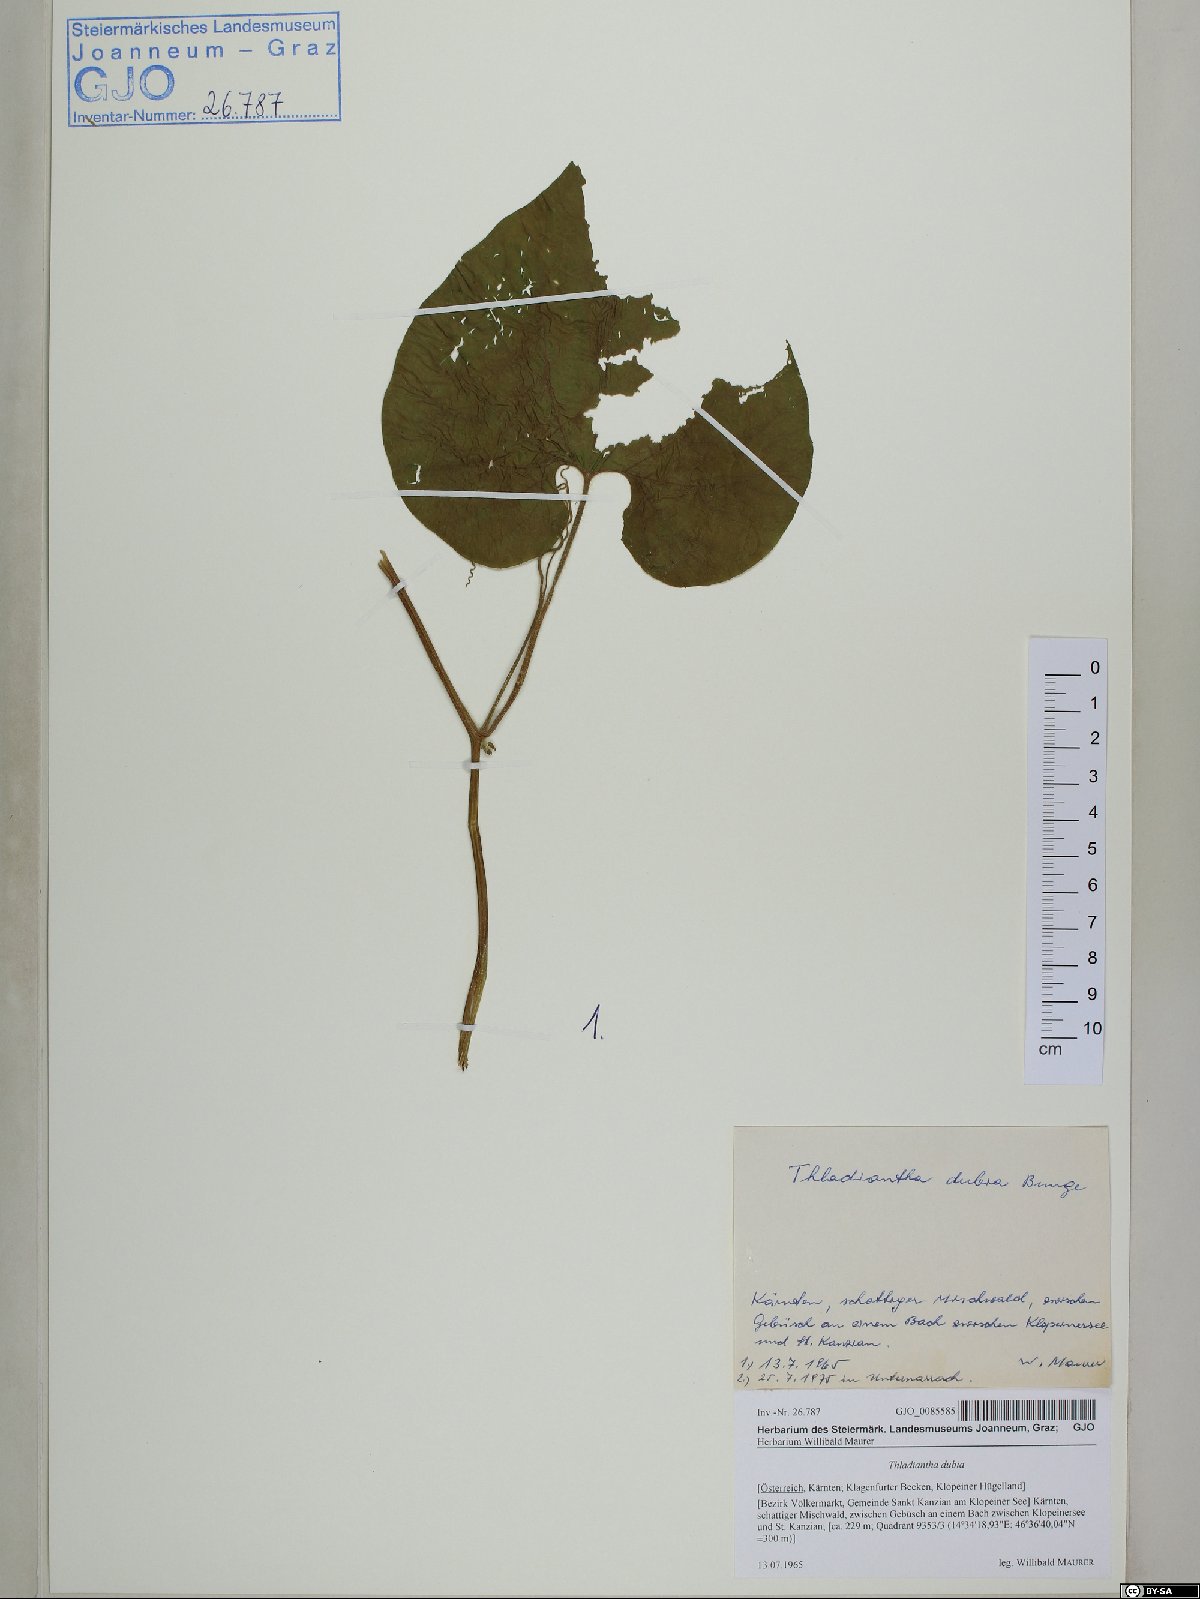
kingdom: Plantae
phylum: Tracheophyta
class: Magnoliopsida
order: Cucurbitales
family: Cucurbitaceae
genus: Thladiantha
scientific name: Thladiantha dubia
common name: Manchu tubergourd
